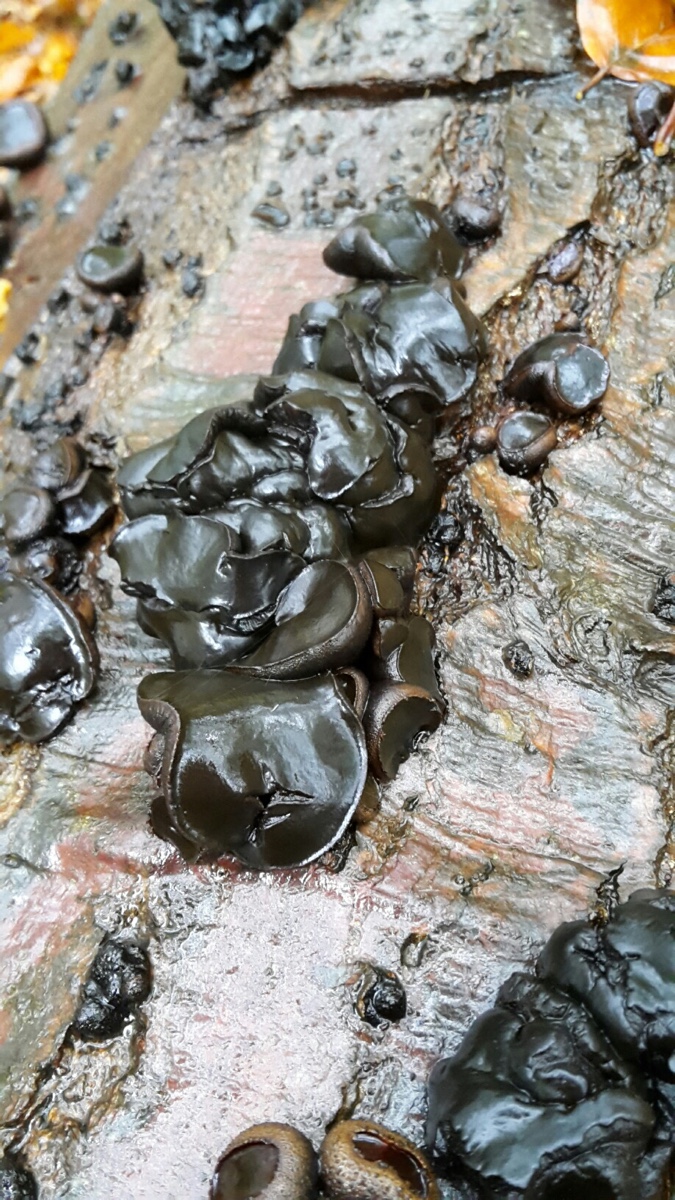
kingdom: Fungi
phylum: Ascomycota
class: Leotiomycetes
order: Phacidiales
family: Phacidiaceae
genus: Bulgaria
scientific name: Bulgaria inquinans
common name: afsmittende topsvamp
